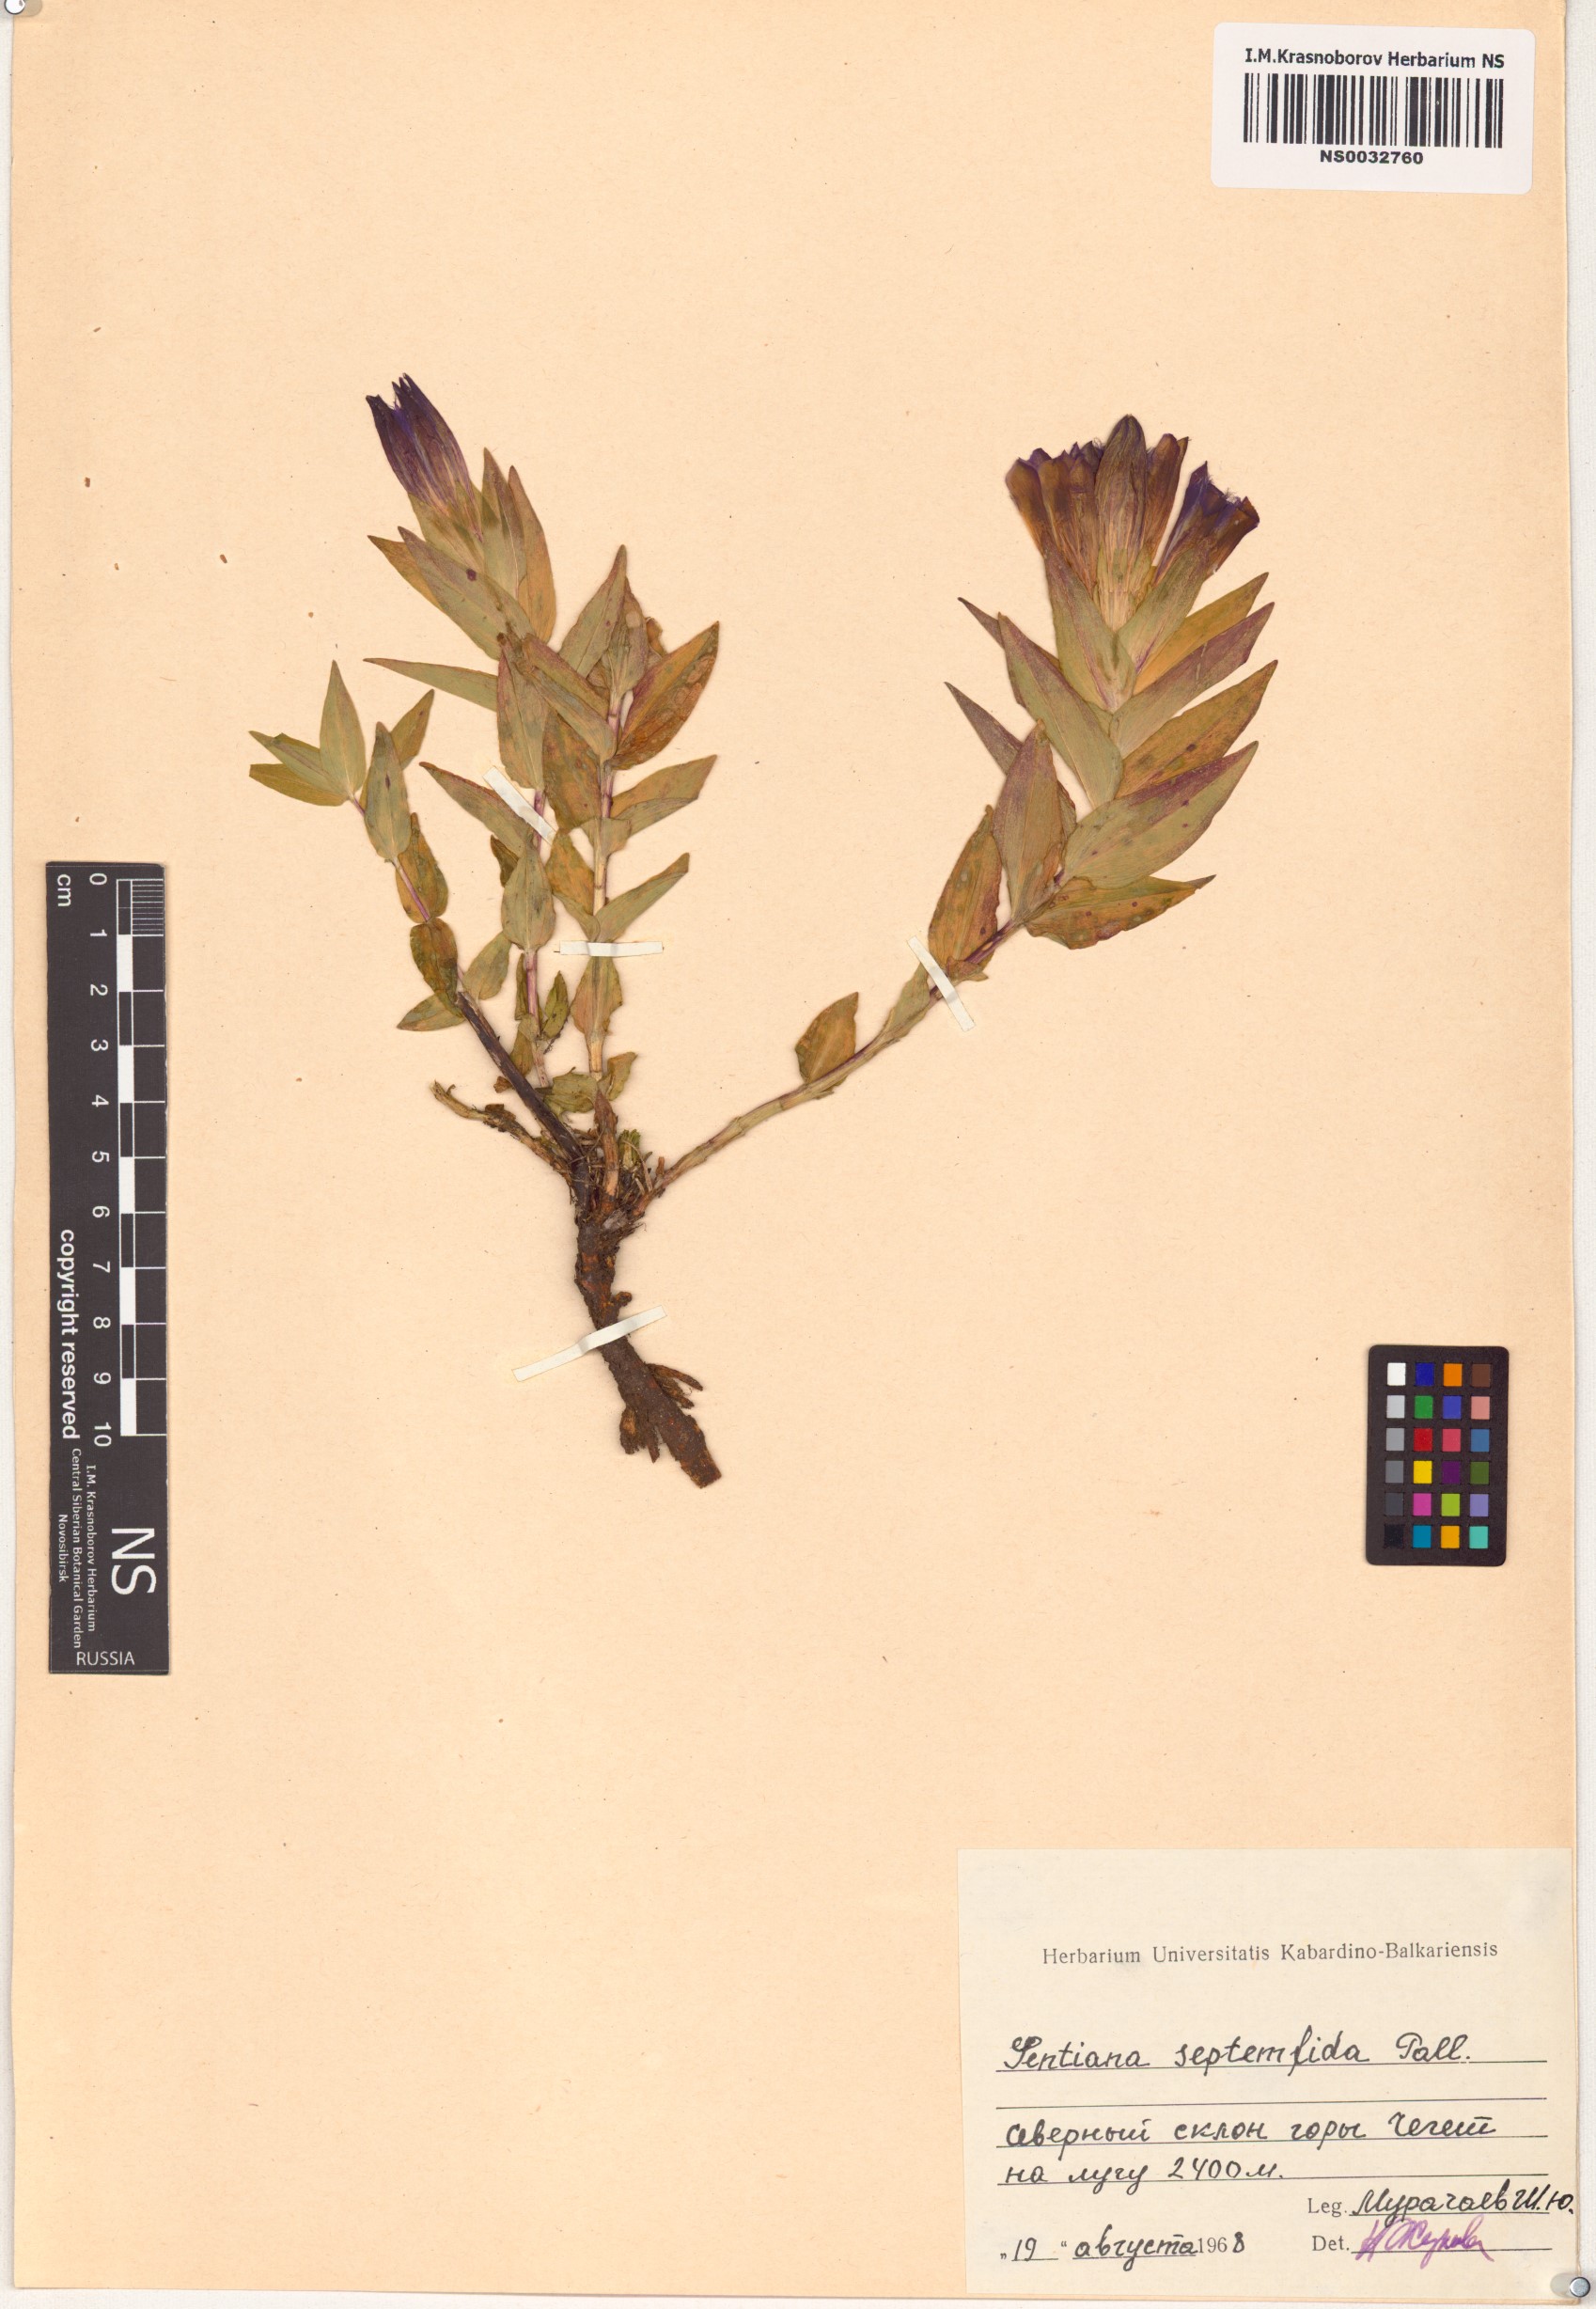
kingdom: Plantae
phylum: Tracheophyta
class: Magnoliopsida
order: Gentianales
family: Gentianaceae
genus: Gentiana
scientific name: Gentiana septemfida
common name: Crested gentian
